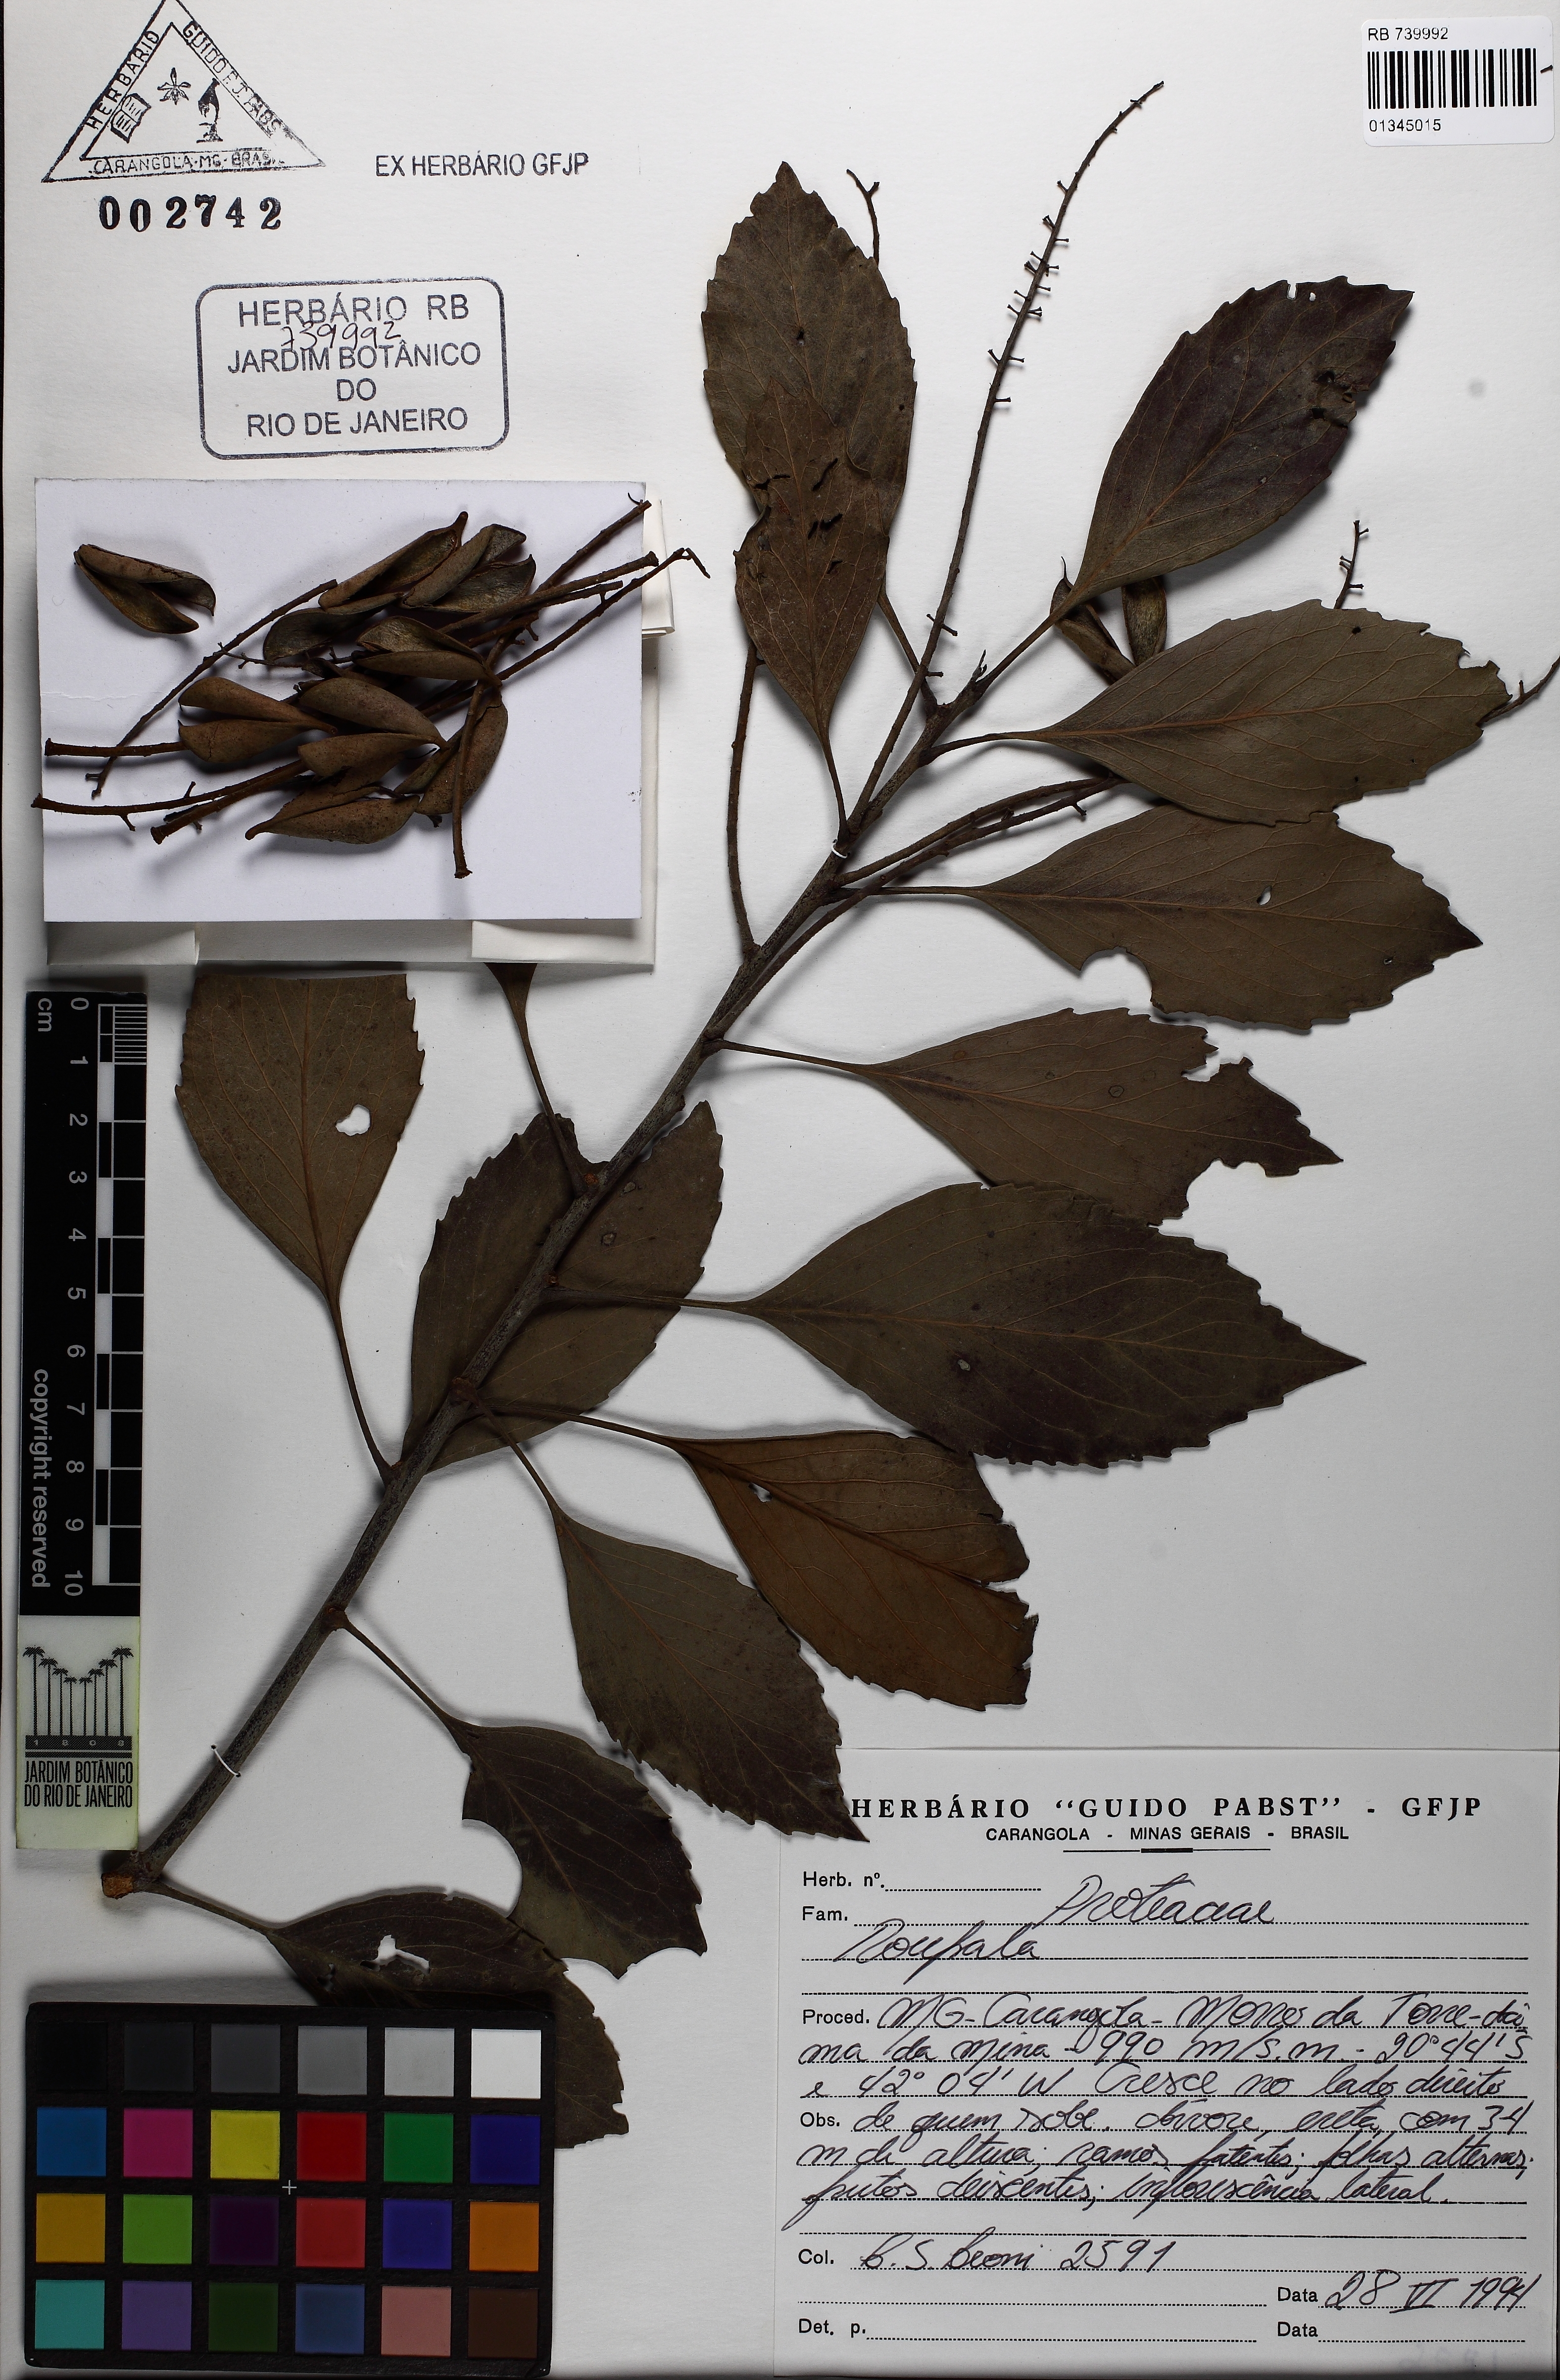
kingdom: Plantae
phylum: Tracheophyta
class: Magnoliopsida
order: Proteales
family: Proteaceae
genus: Roupala
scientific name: Roupala
